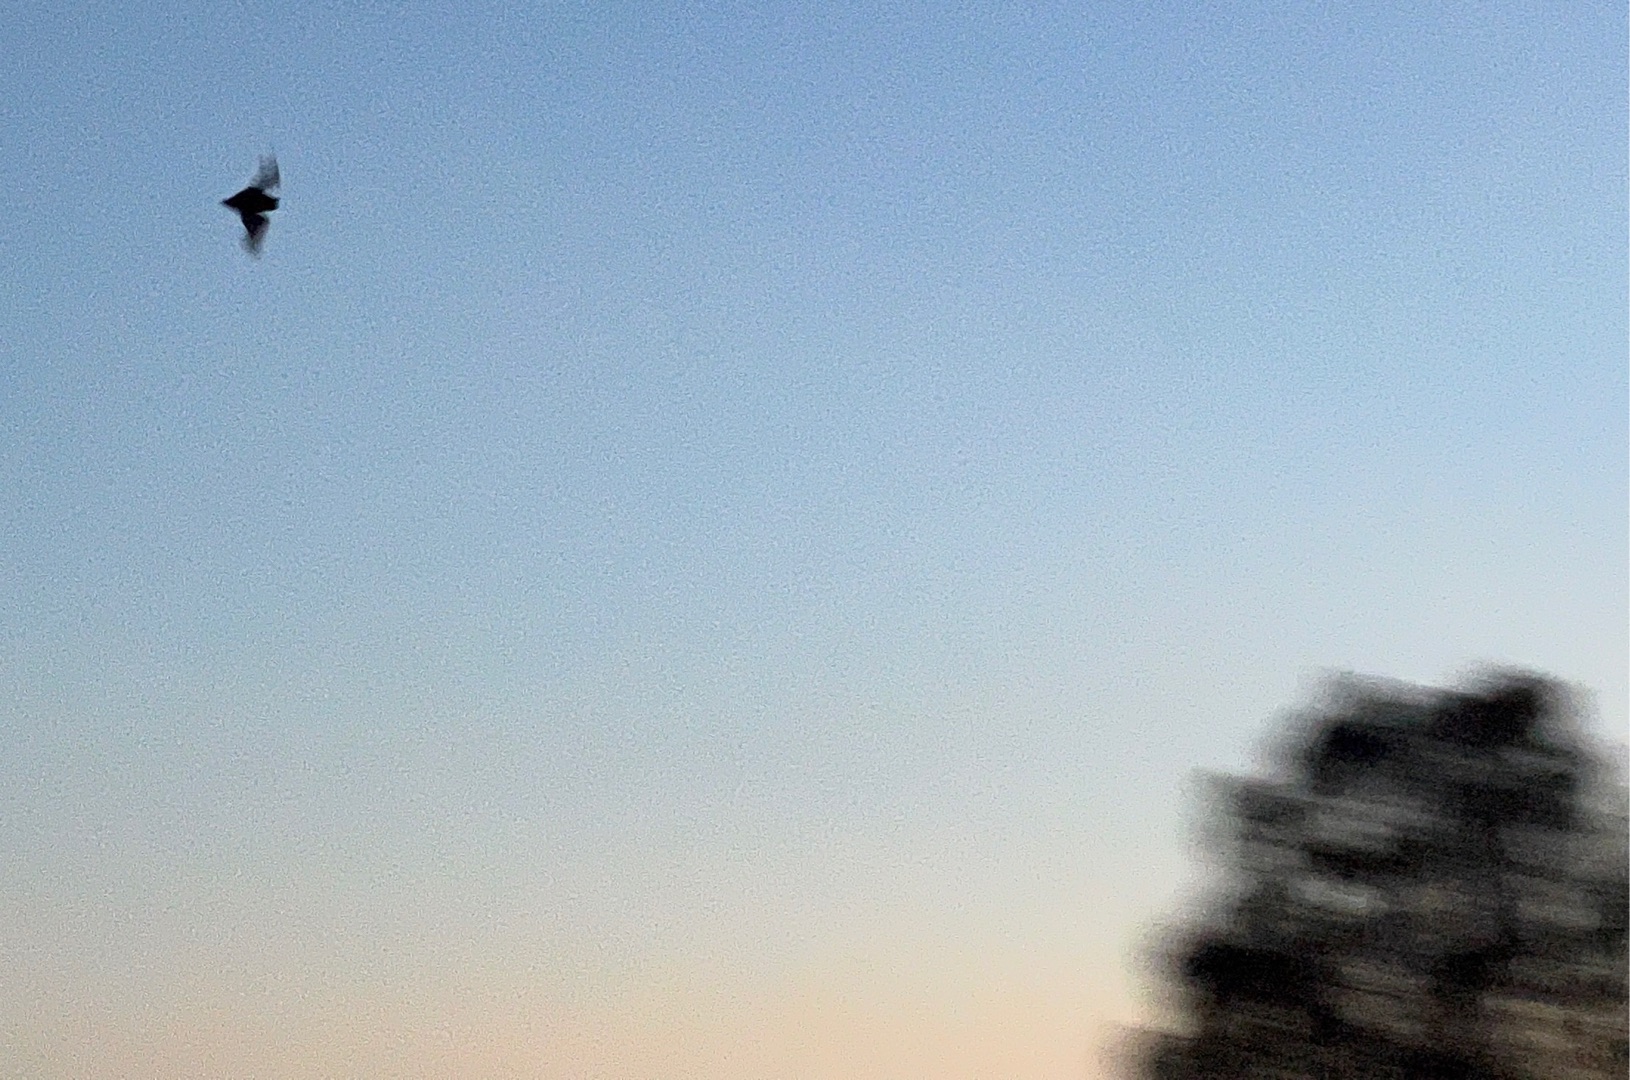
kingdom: Animalia
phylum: Chordata
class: Mammalia
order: Chiroptera
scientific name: Chiroptera
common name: Flagermus
